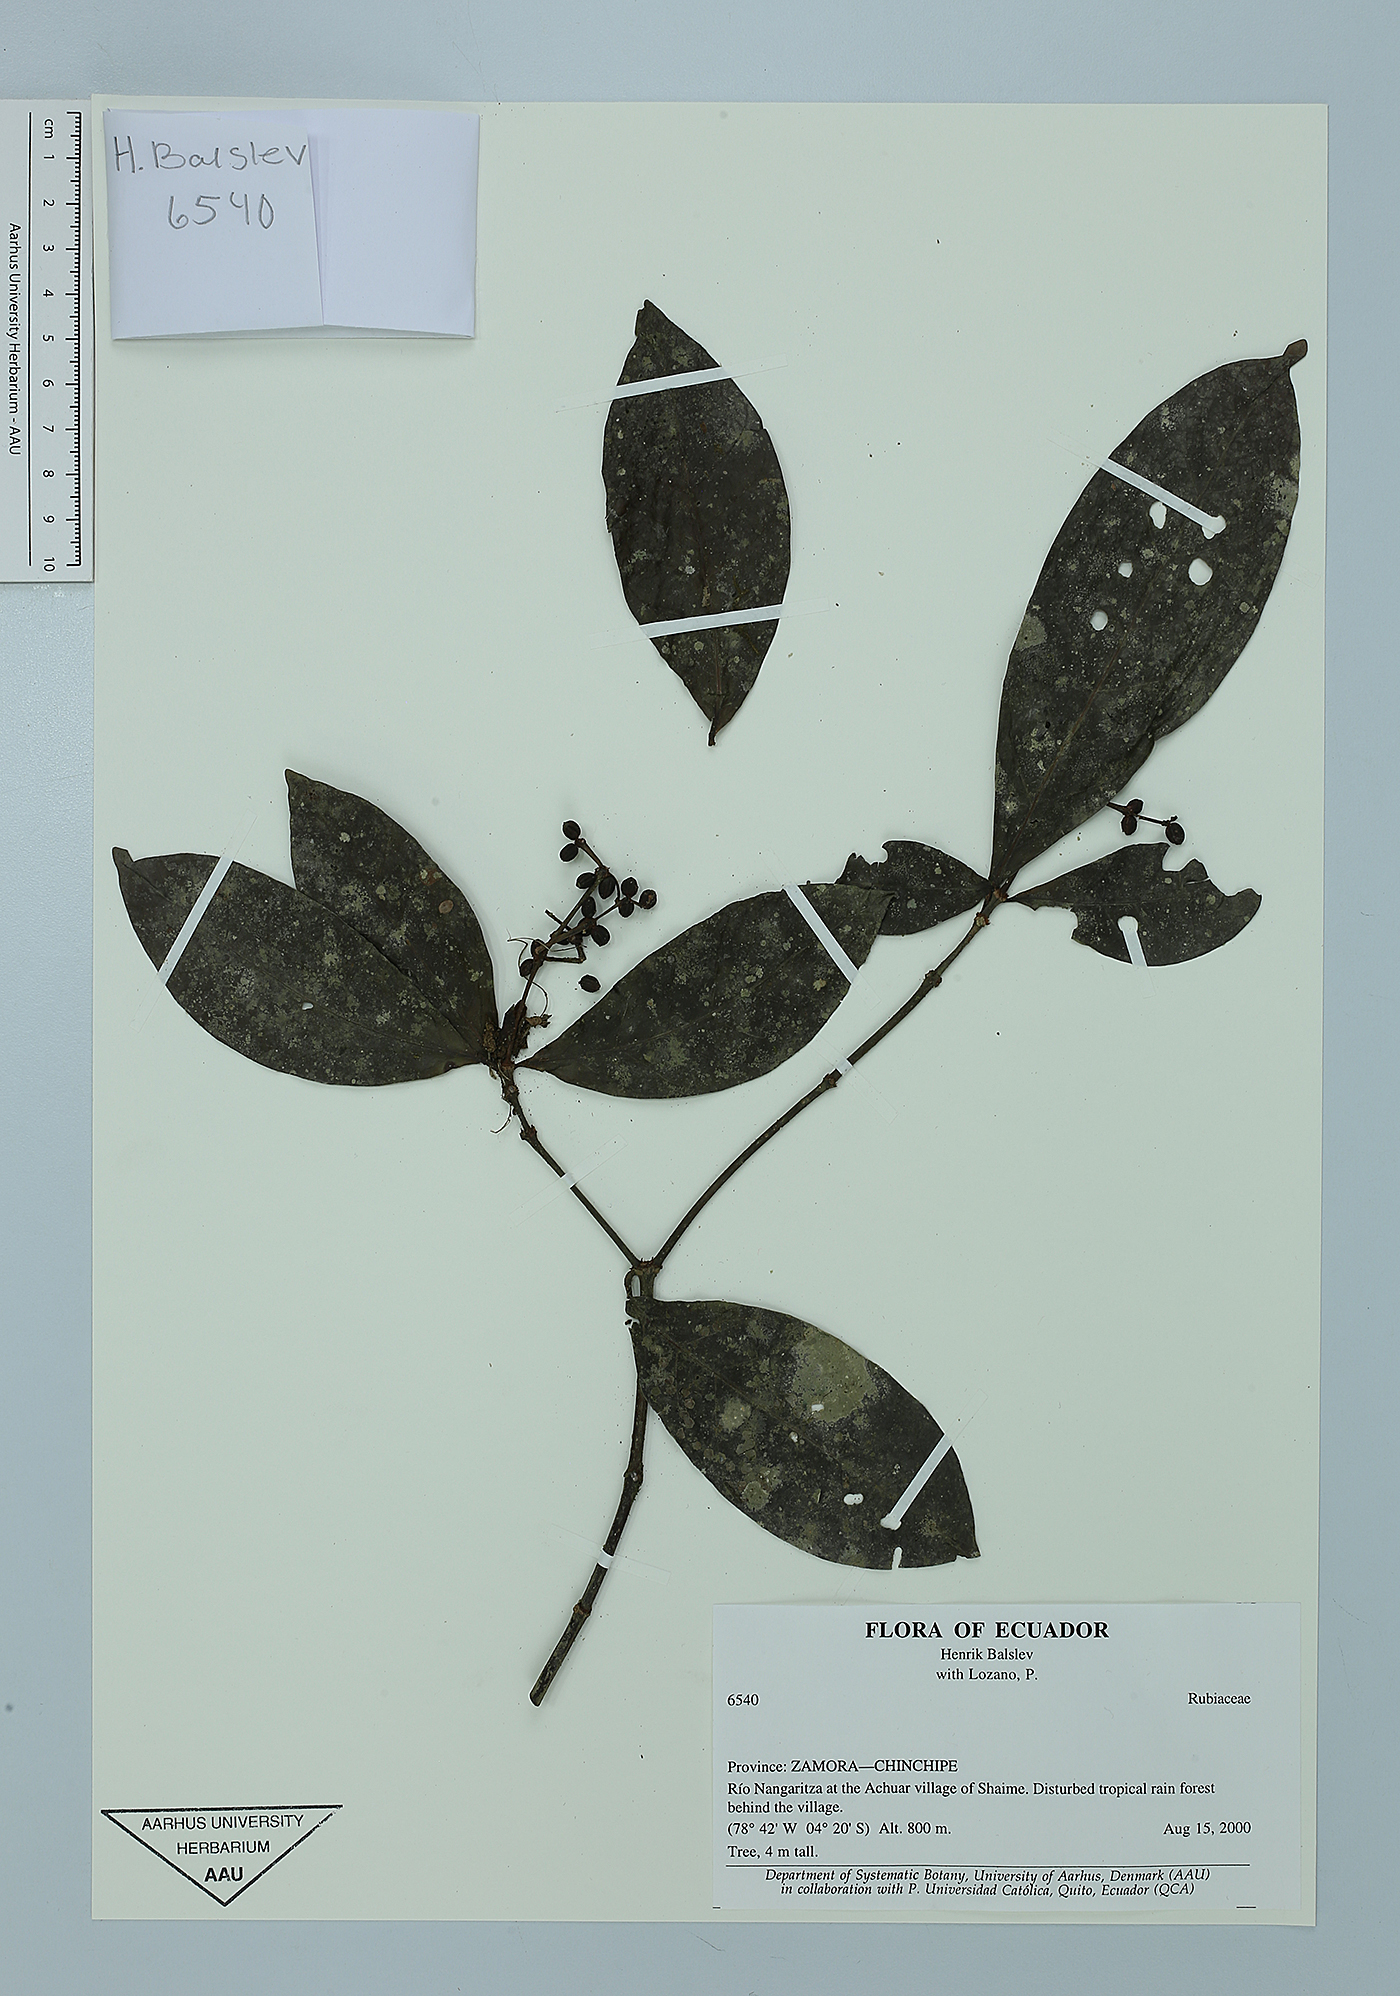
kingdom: Plantae
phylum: Tracheophyta
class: Magnoliopsida
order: Gentianales
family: Rubiaceae
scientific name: Rubiaceae
